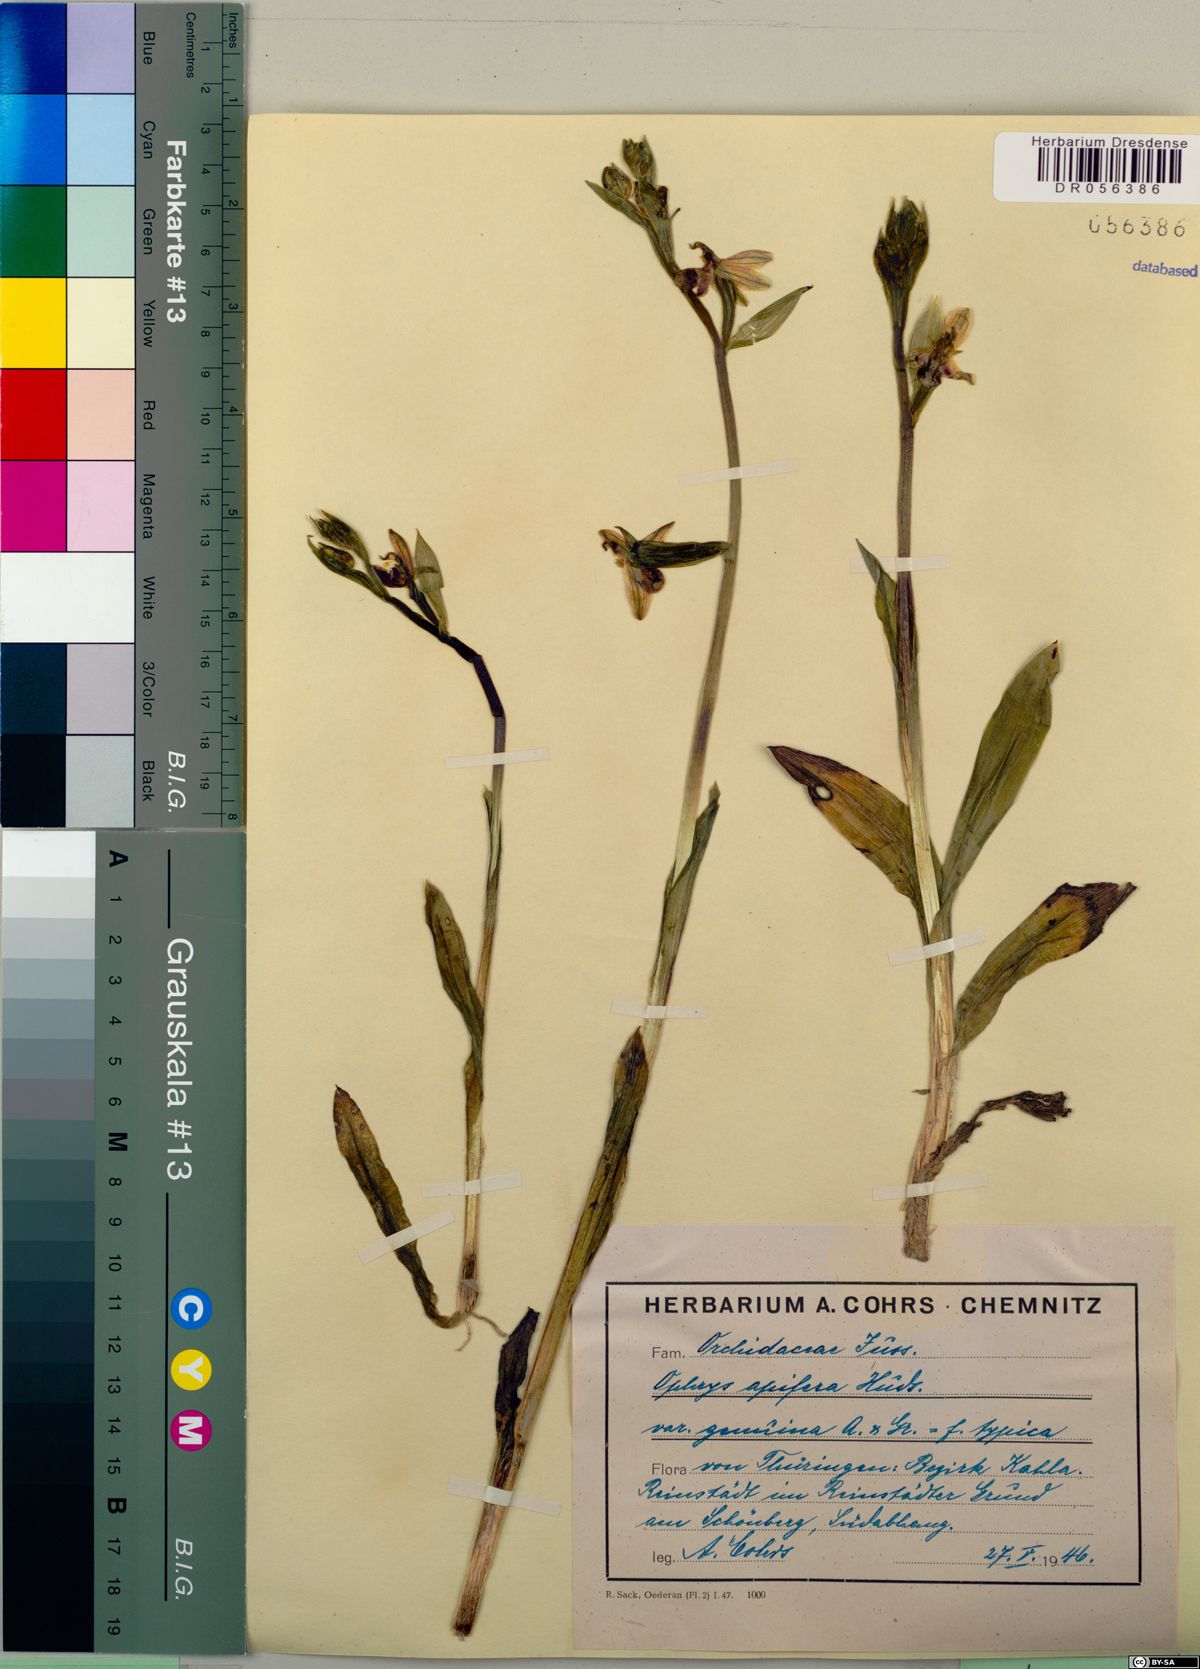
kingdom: Plantae
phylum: Tracheophyta
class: Liliopsida
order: Asparagales
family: Orchidaceae
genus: Ophrys
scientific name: Ophrys apifera
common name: Bee orchid
